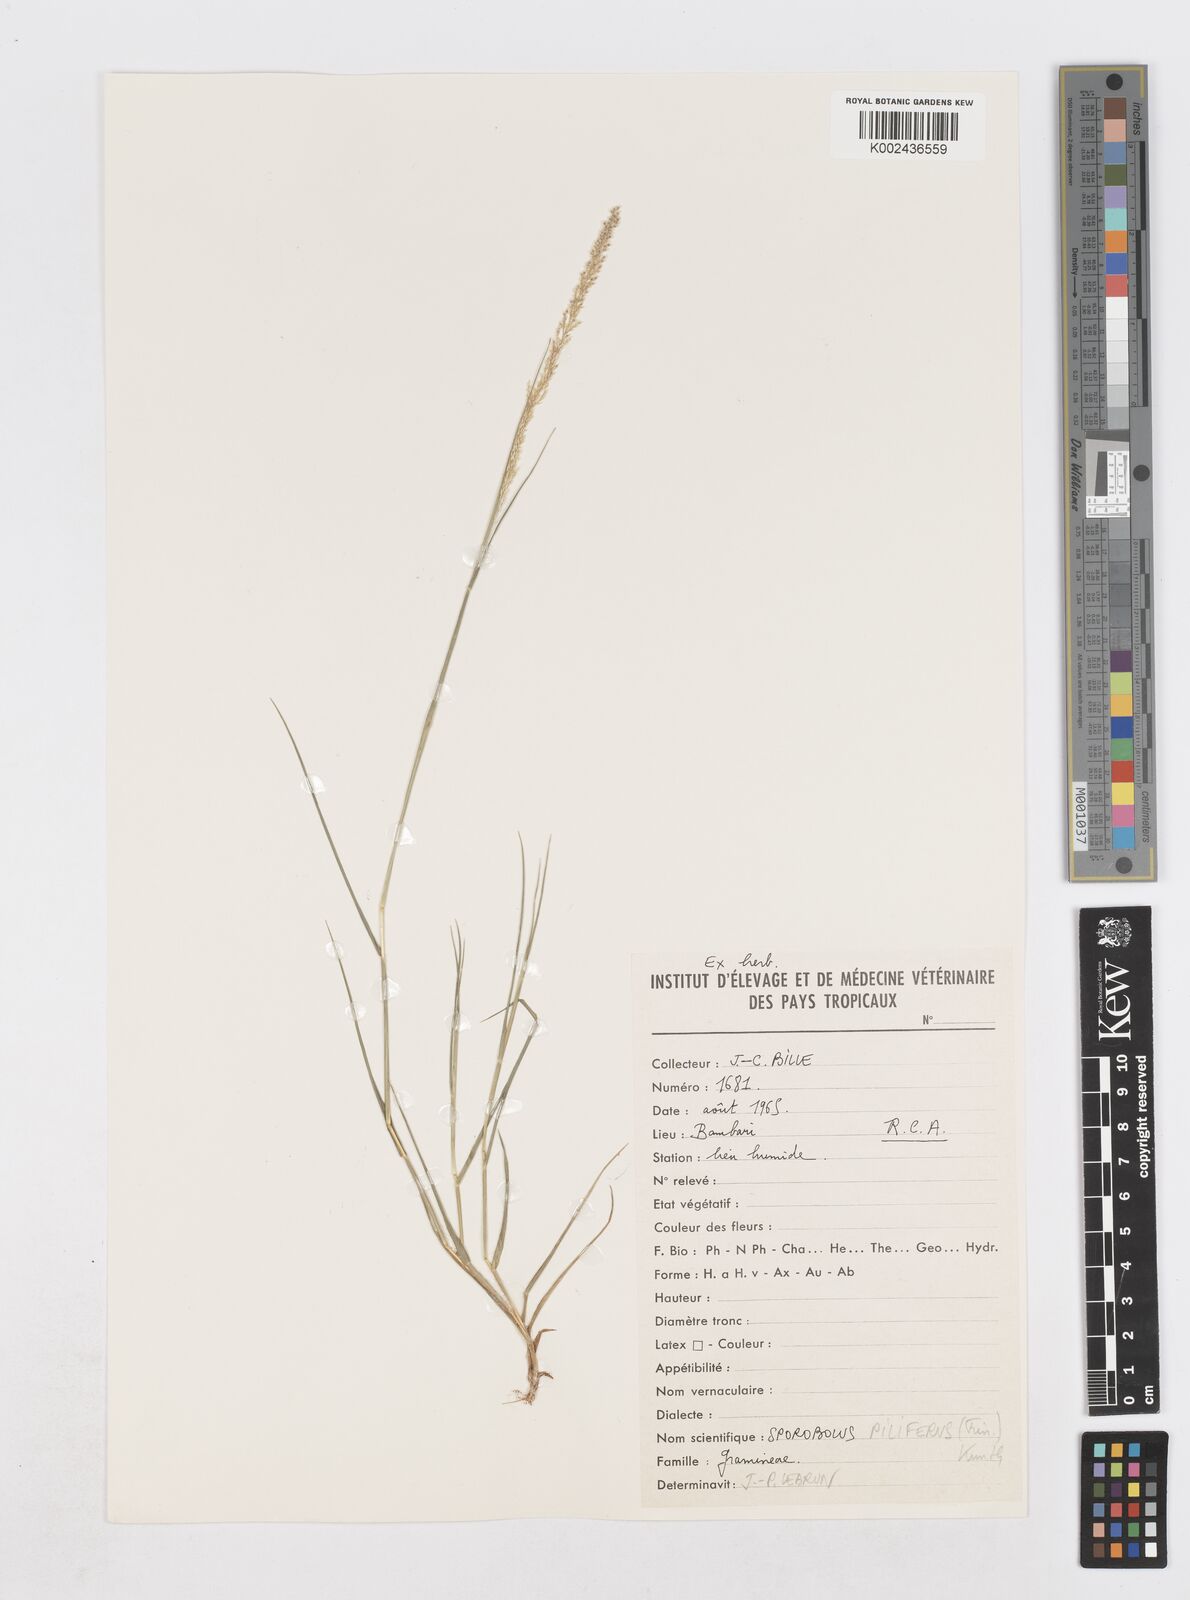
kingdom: Plantae
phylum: Tracheophyta
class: Liliopsida
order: Poales
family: Poaceae
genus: Sporobolus
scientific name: Sporobolus pilifer
